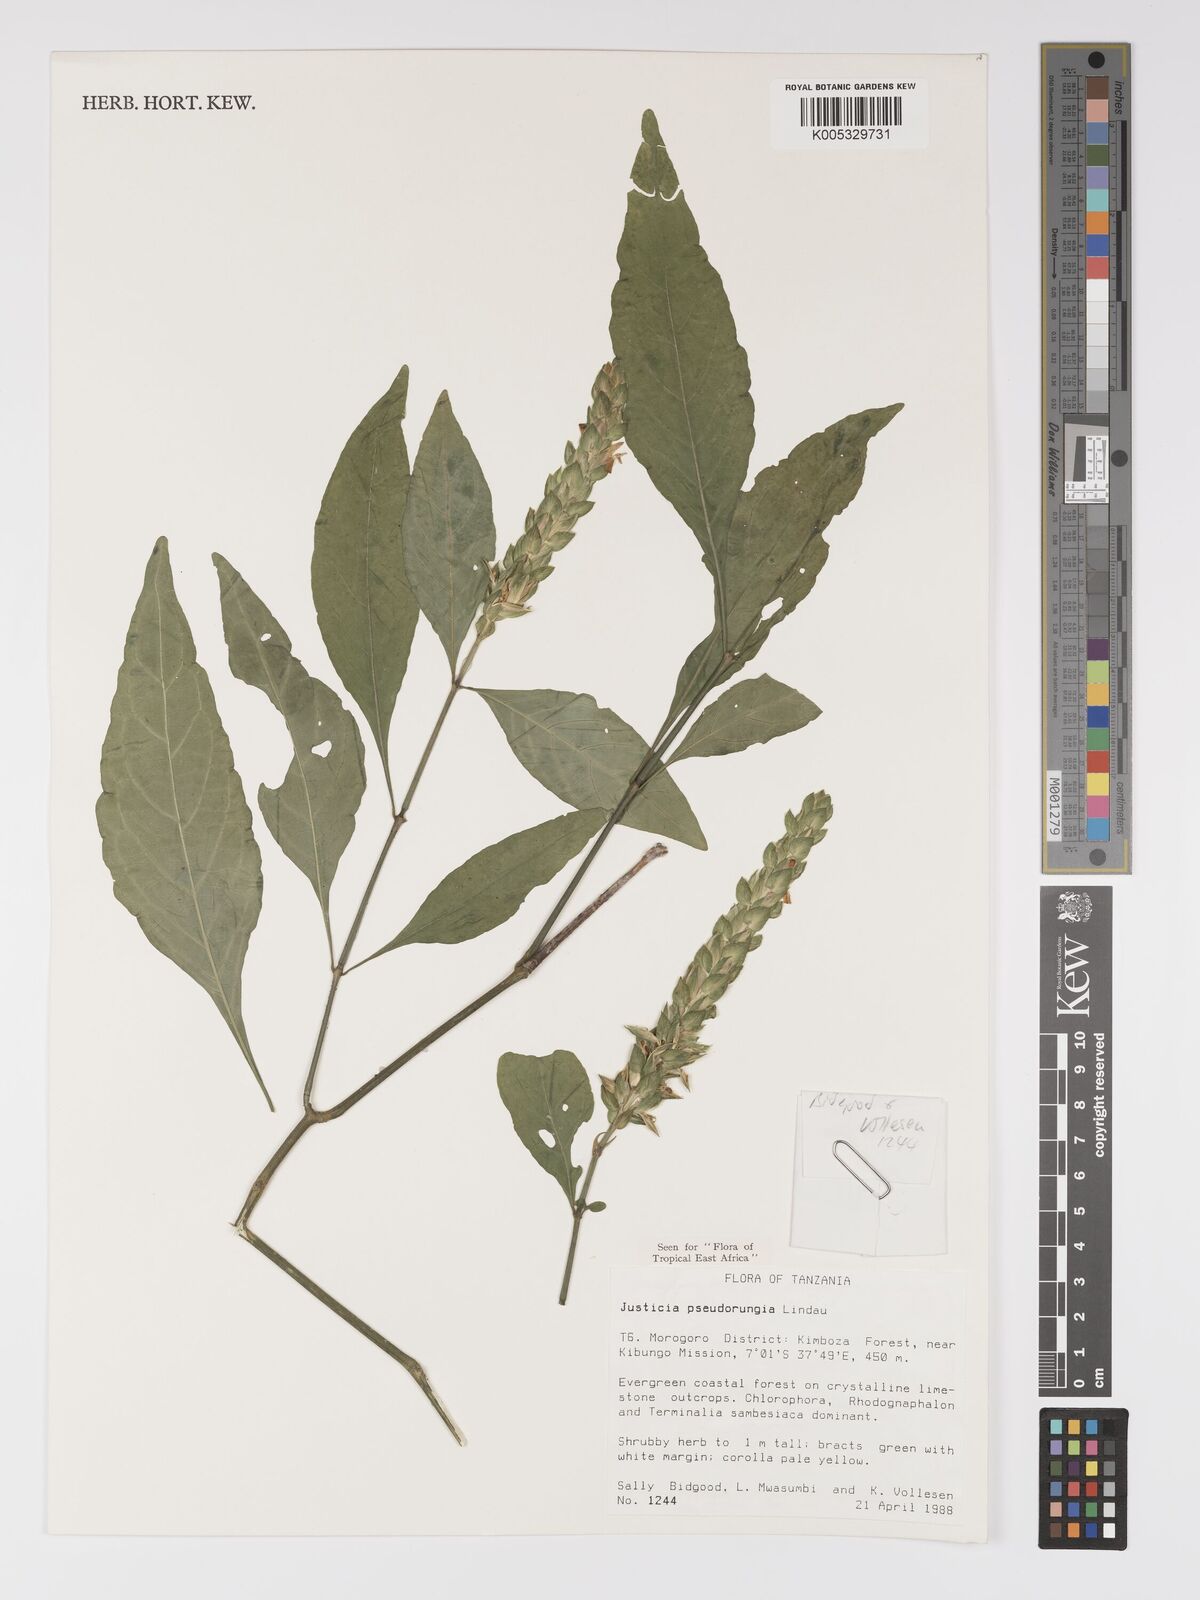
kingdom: Plantae
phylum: Tracheophyta
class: Magnoliopsida
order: Lamiales
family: Acanthaceae
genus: Justicia
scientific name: Justicia pseudorungia
